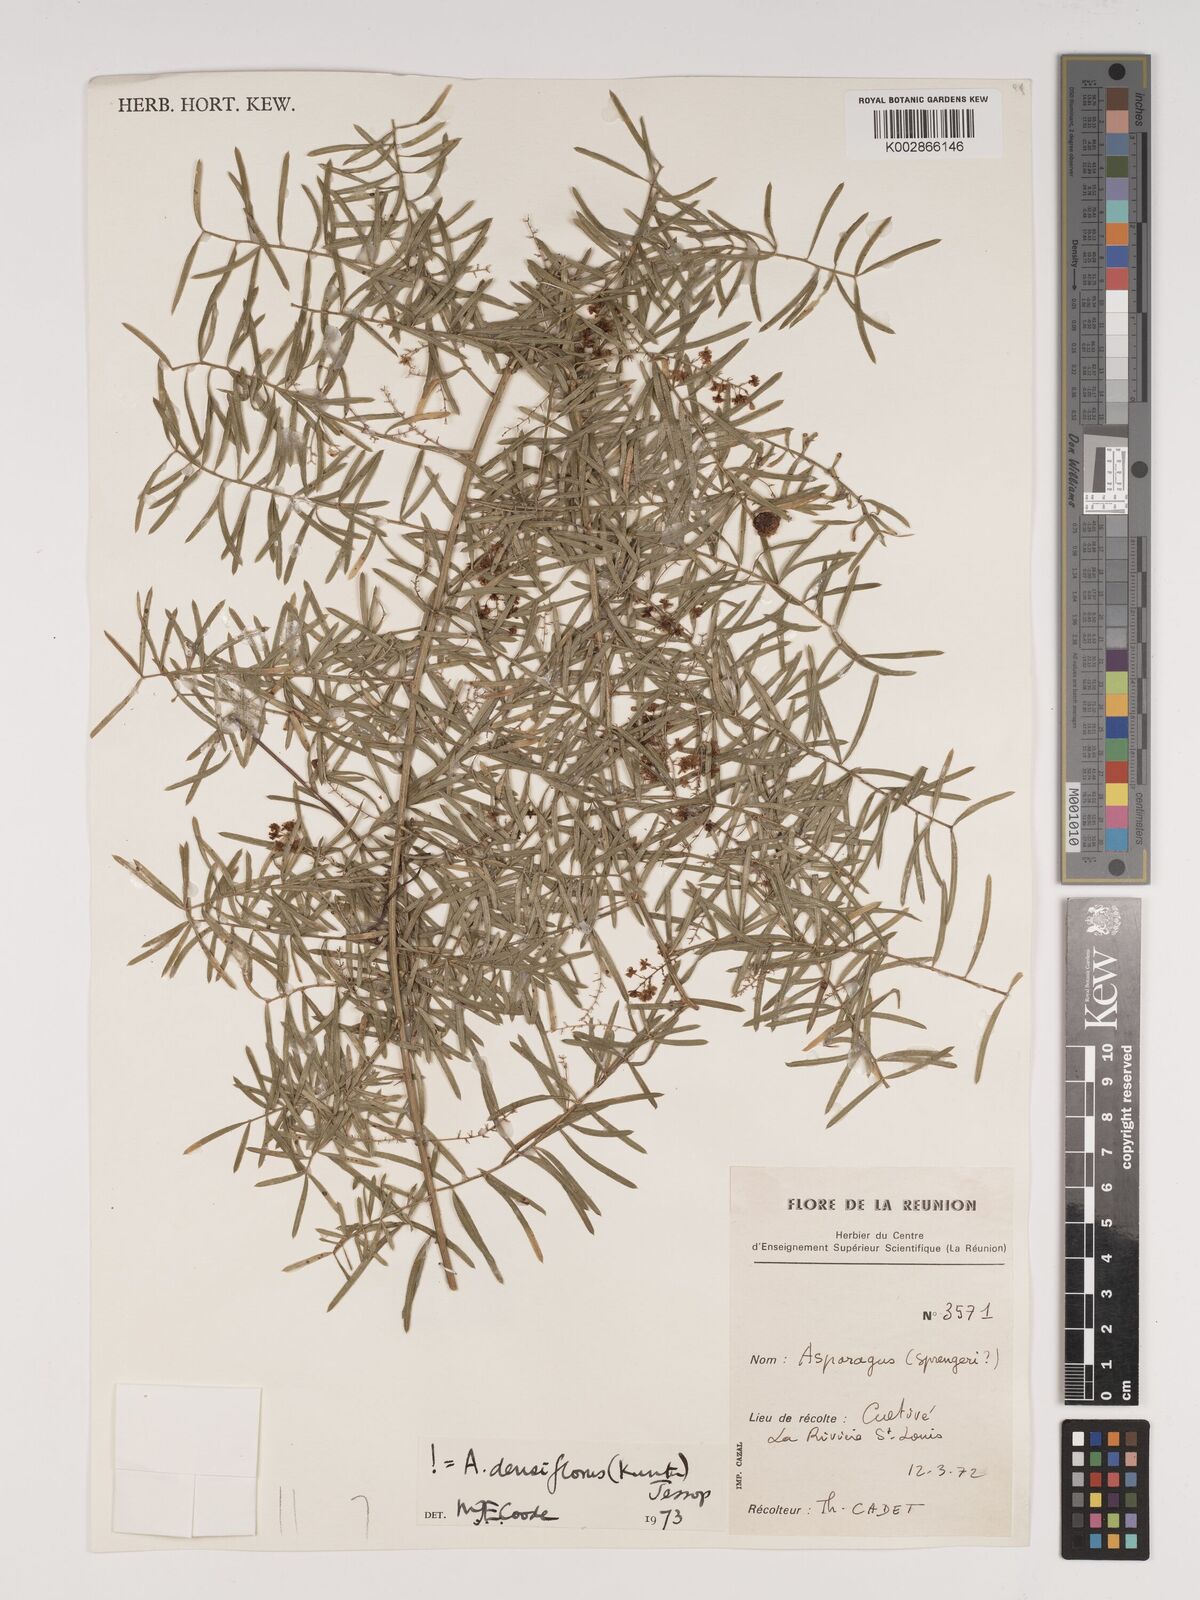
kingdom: Plantae
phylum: Tracheophyta
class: Liliopsida
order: Asparagales
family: Asparagaceae
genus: Asparagus
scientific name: Asparagus densiflorus
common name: Asparagus fern
